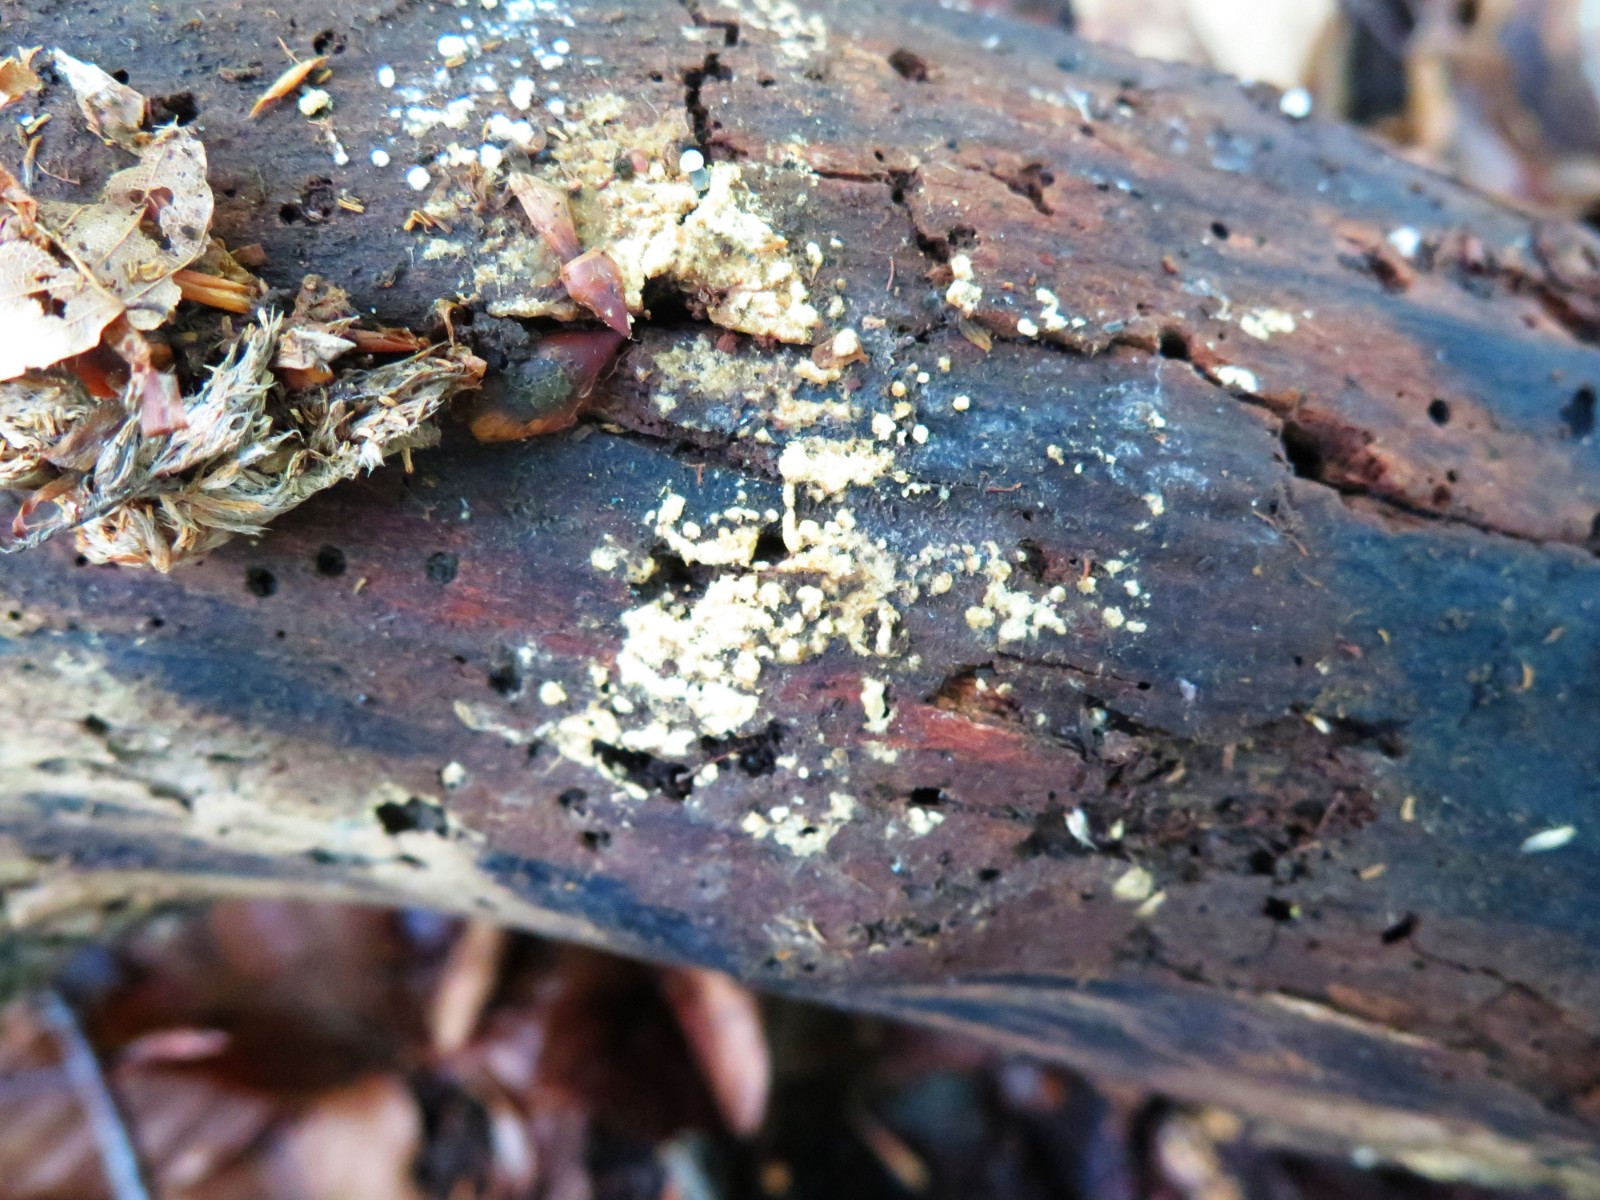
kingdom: Fungi
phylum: Basidiomycota
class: Agaricomycetes
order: Cantharellales
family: Botryobasidiaceae
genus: Botryobasidium
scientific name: Botryobasidium aureum
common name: gylden spindhinde
